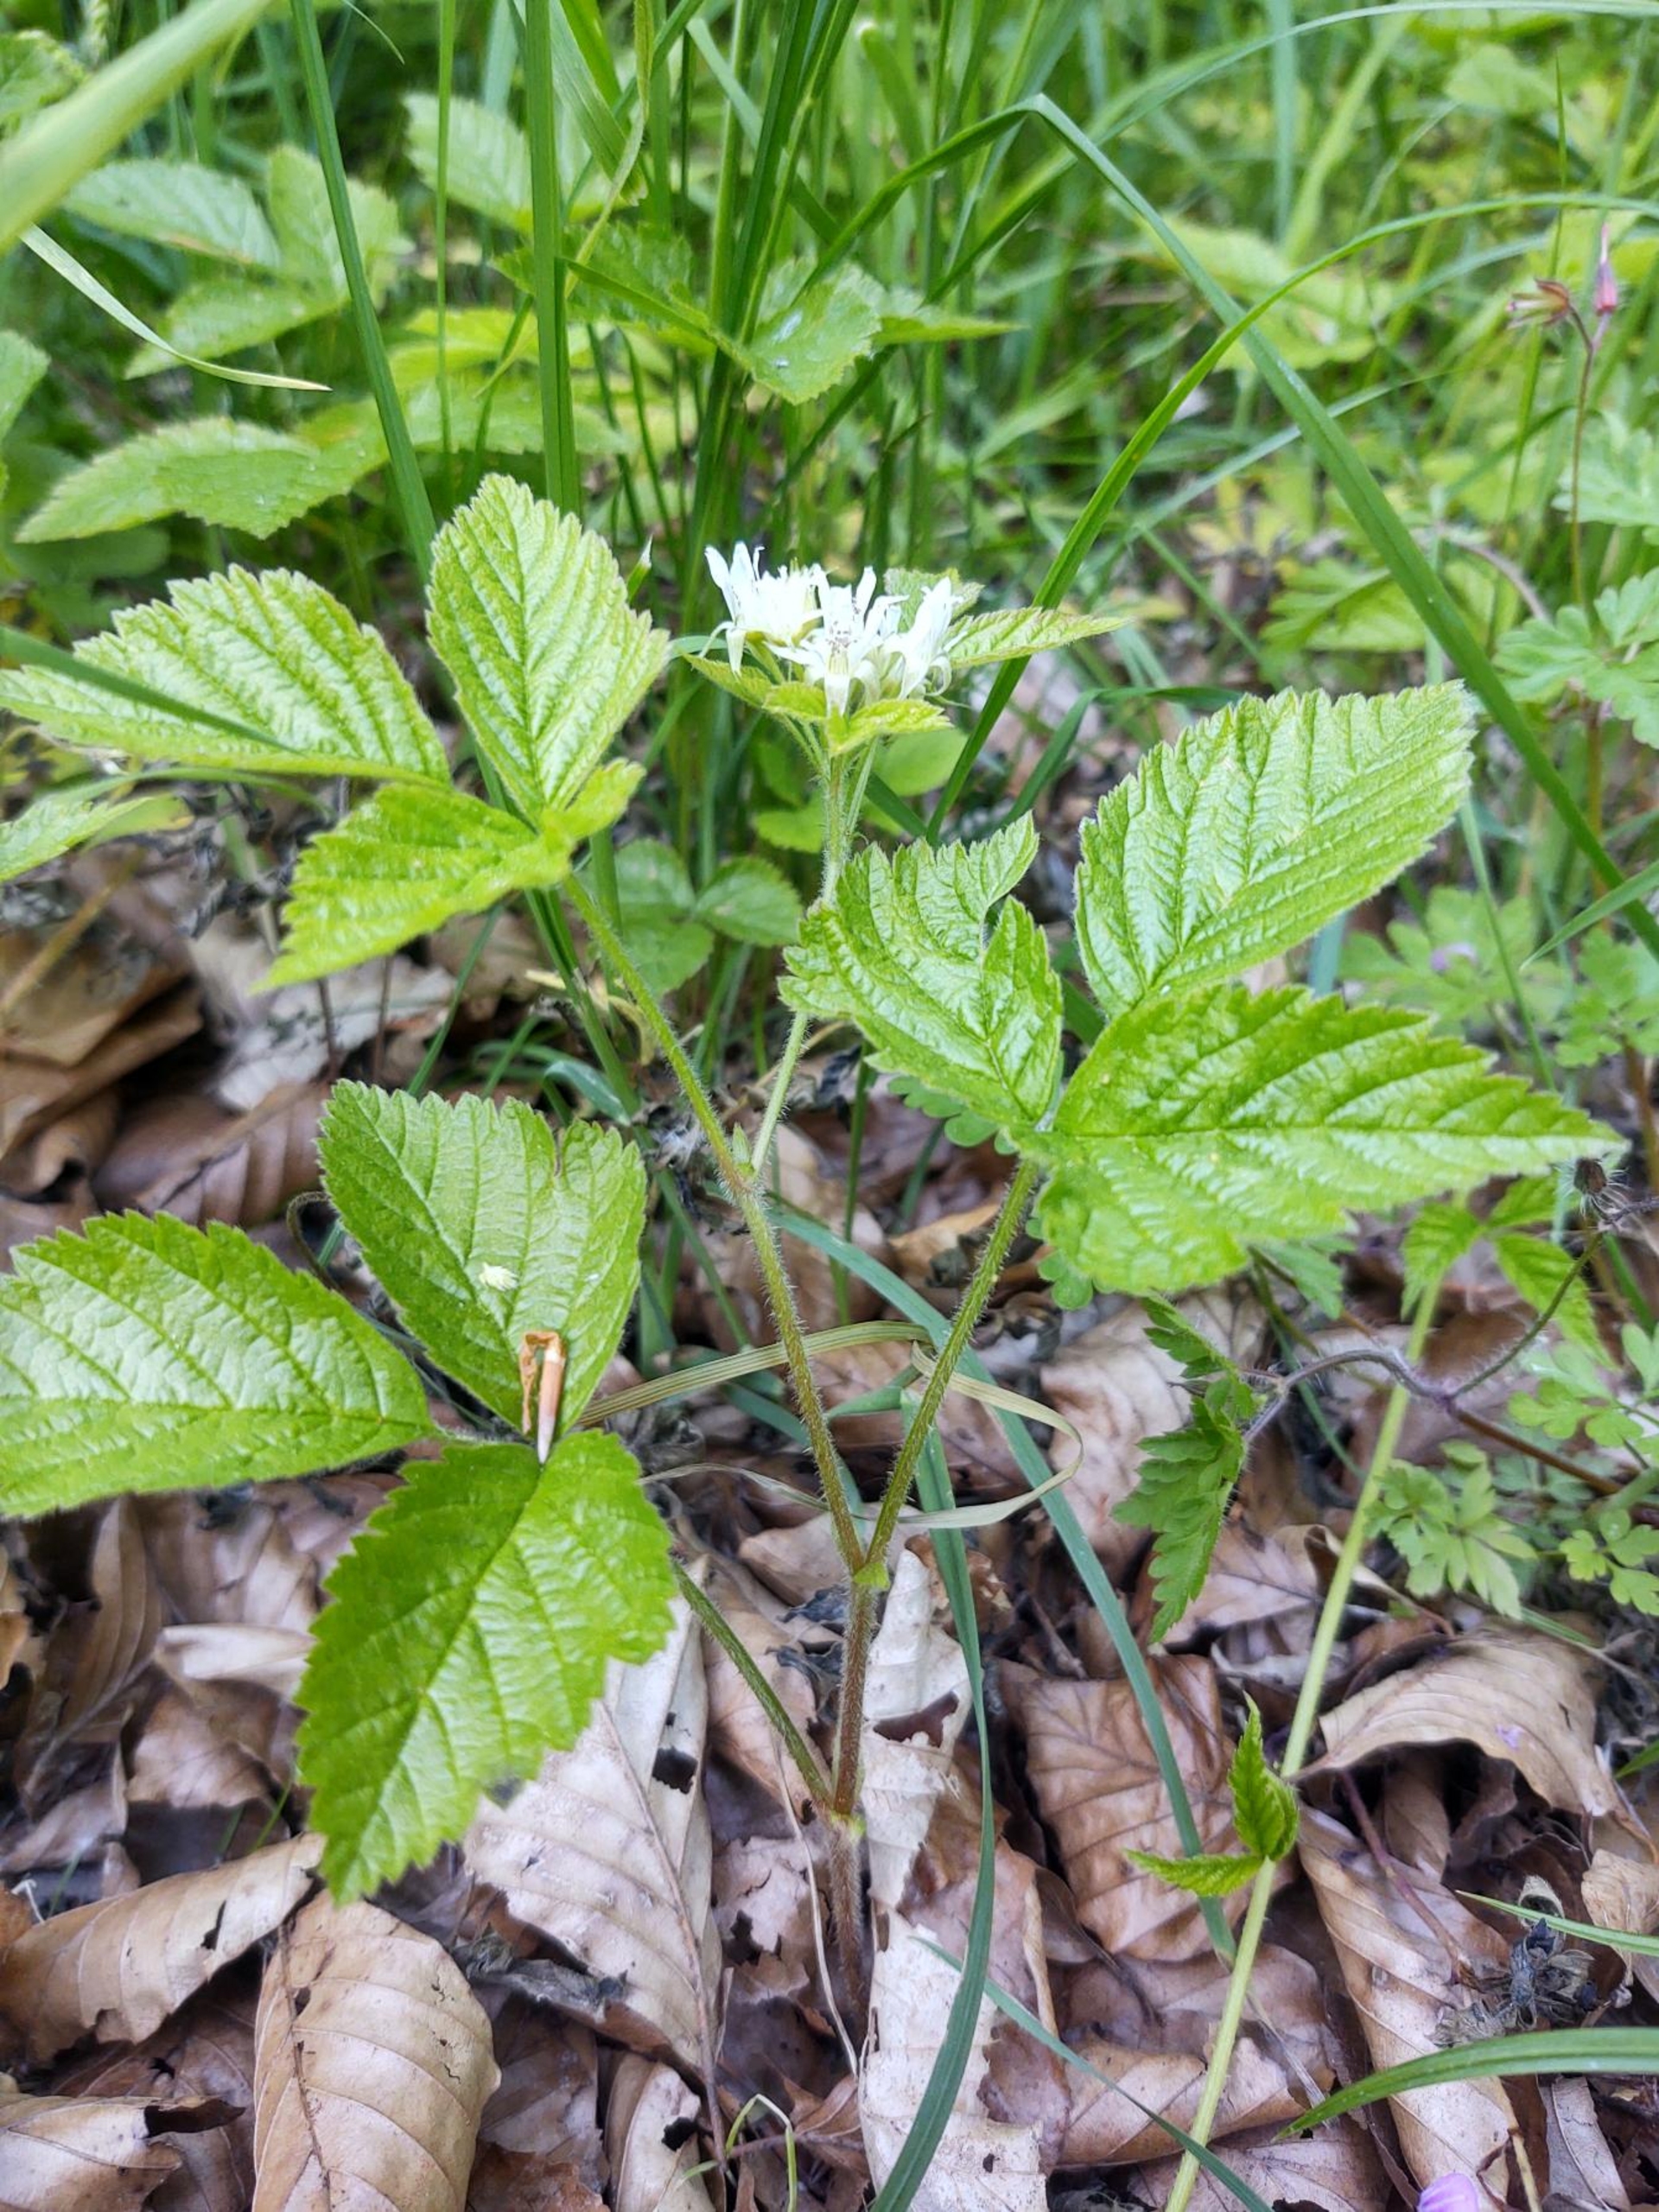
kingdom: Plantae
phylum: Tracheophyta
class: Magnoliopsida
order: Rosales
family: Rosaceae
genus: Rubus
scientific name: Rubus saxatilis
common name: Fruebær
